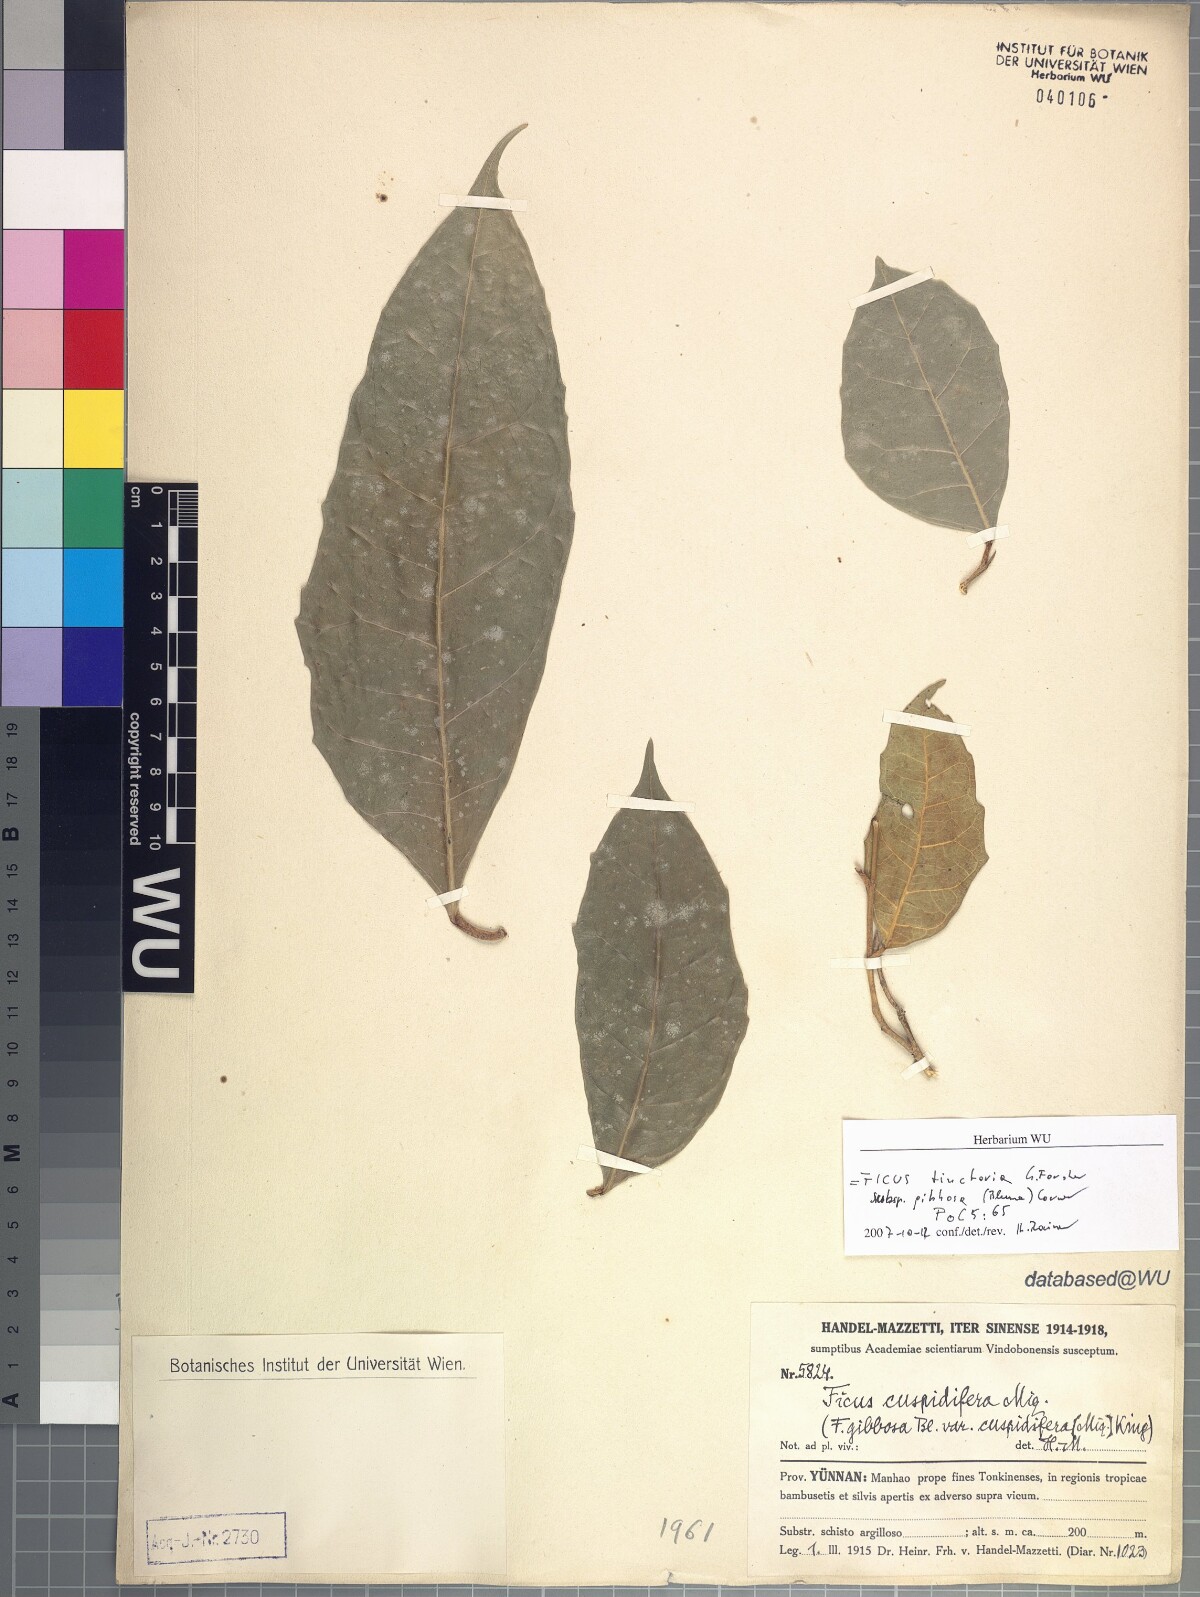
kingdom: Plantae
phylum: Tracheophyta
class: Magnoliopsida
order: Rosales
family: Moraceae
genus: Ficus
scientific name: Ficus tinctoria
